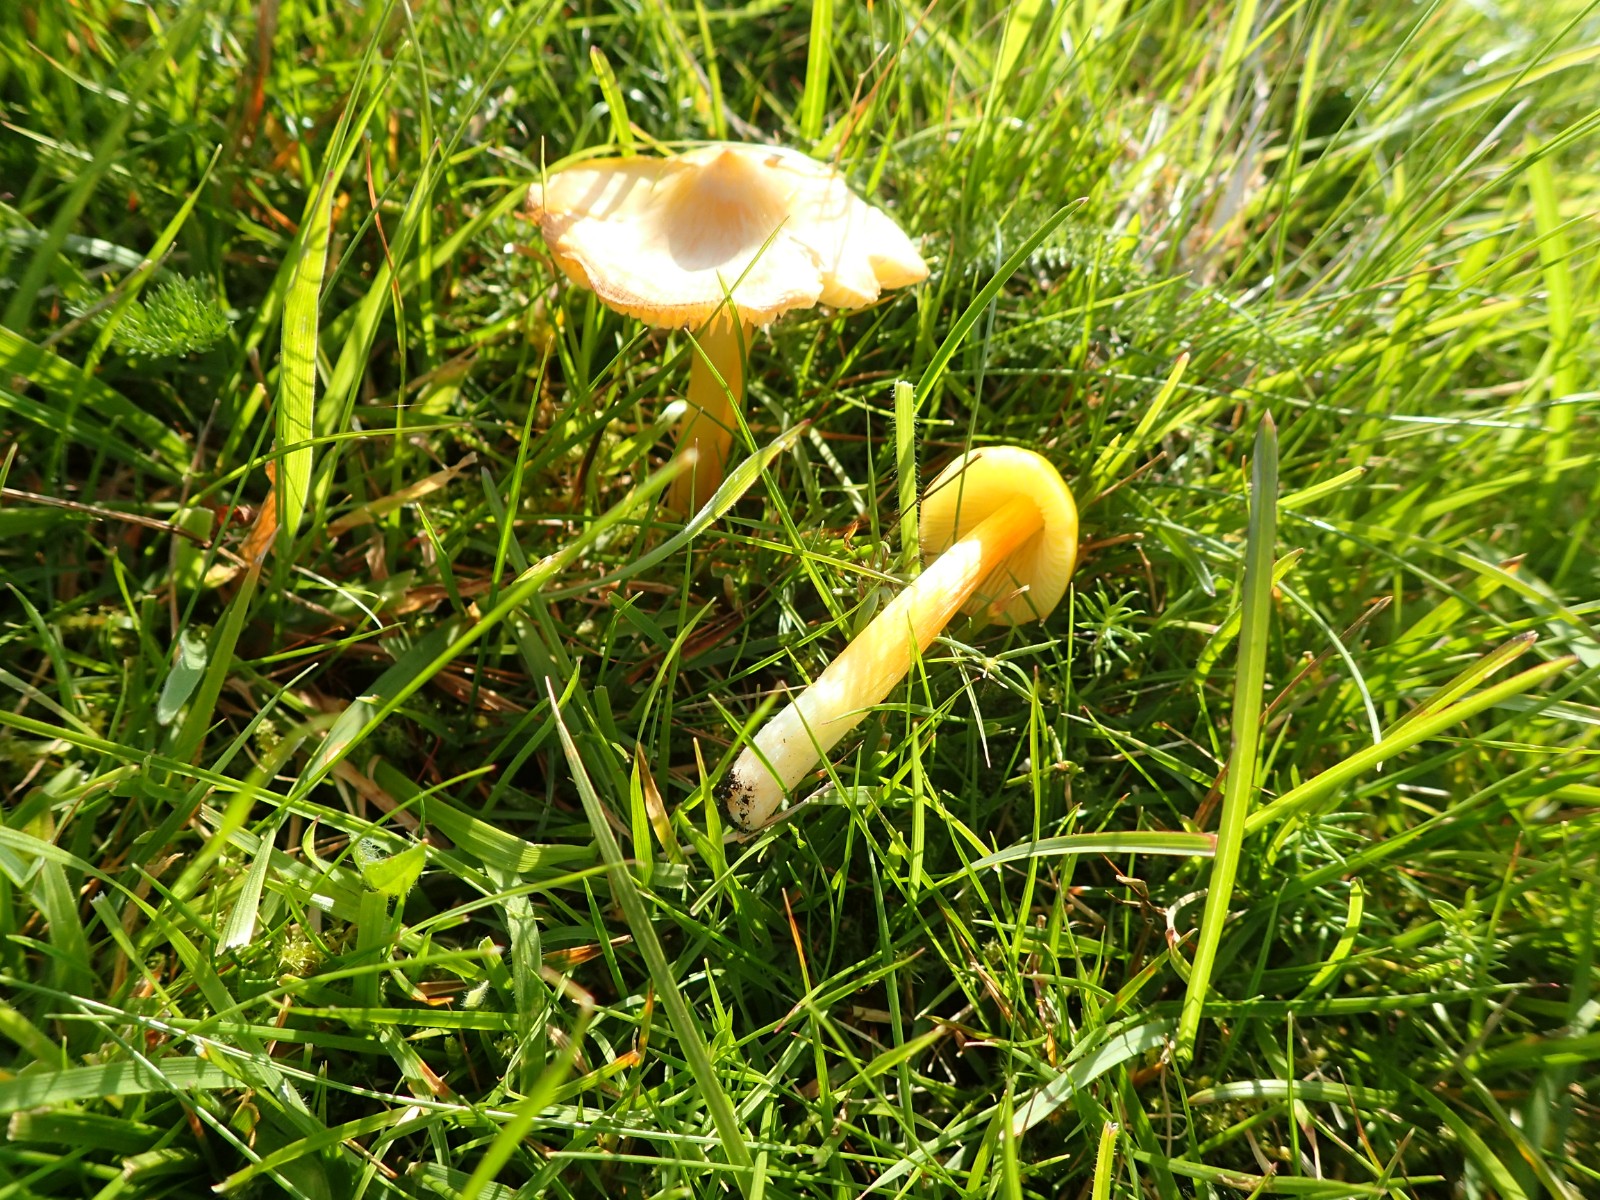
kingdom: Fungi
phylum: Basidiomycota
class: Agaricomycetes
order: Agaricales
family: Hygrophoraceae
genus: Hygrocybe
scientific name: Hygrocybe acutoconica
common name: spidspuklet vokshat
